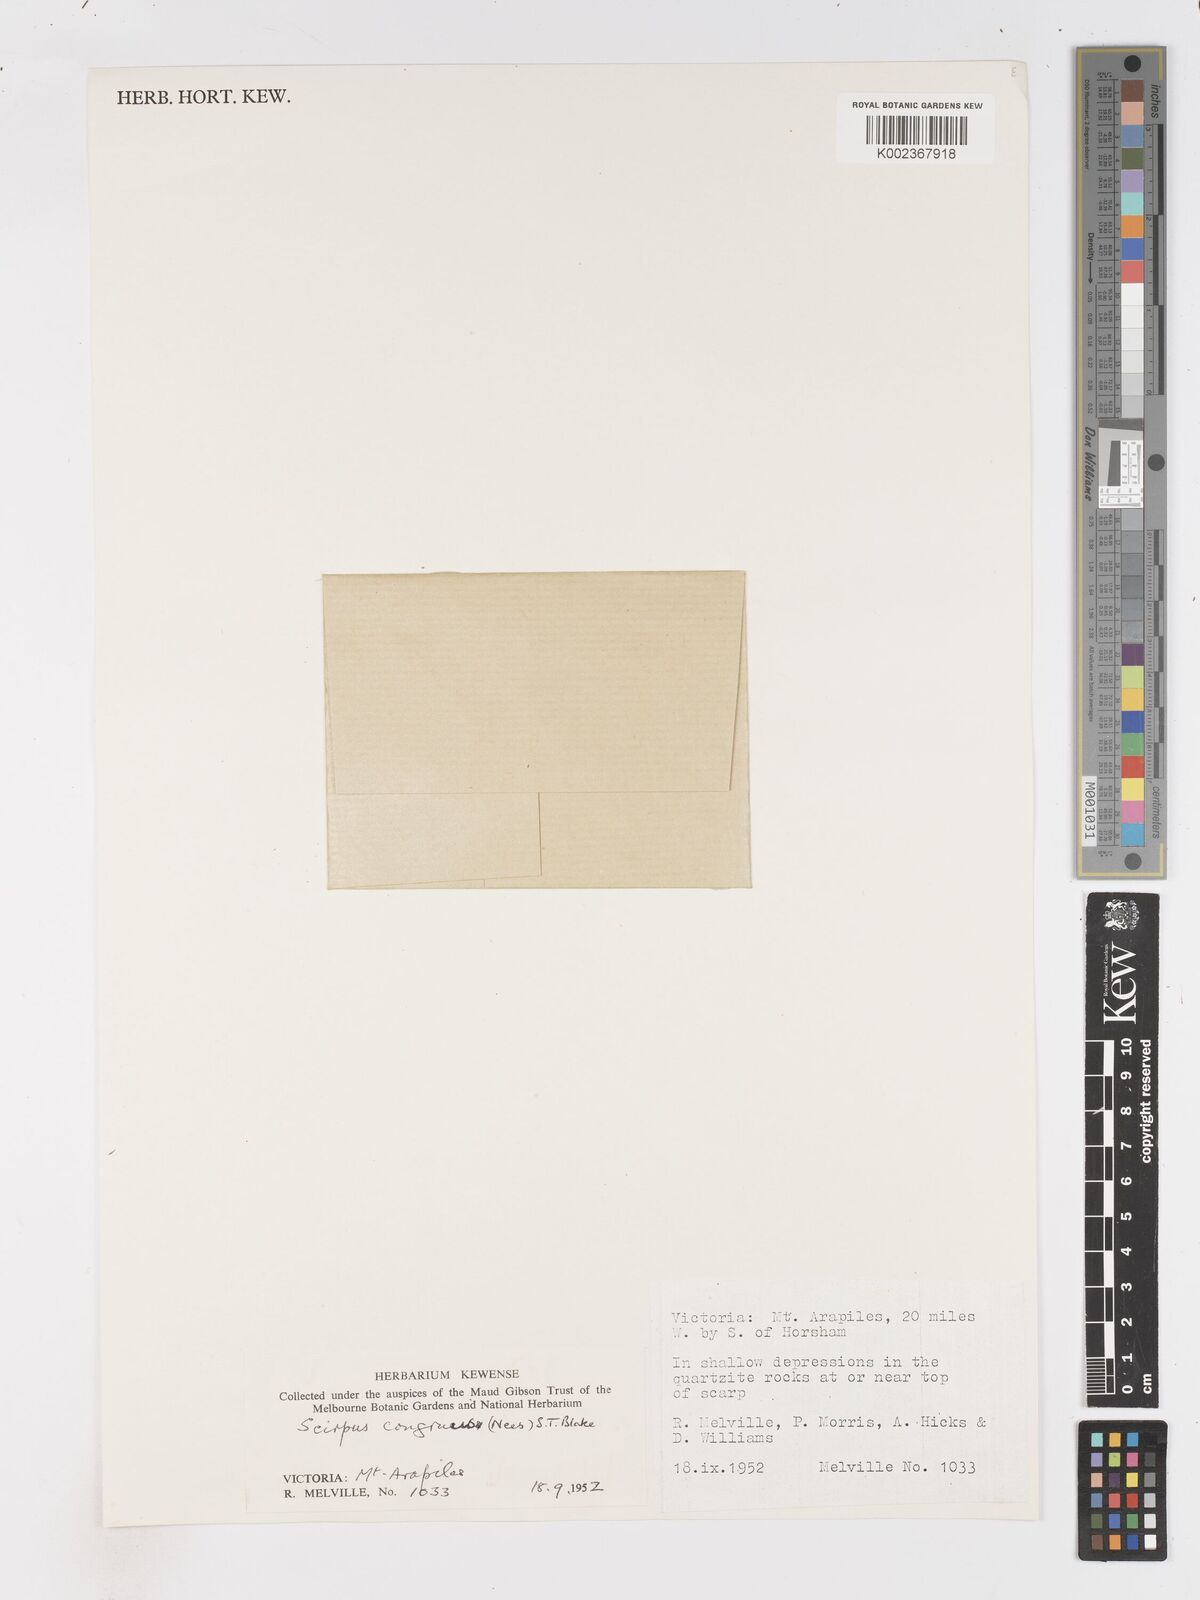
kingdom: Plantae
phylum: Tracheophyta
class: Liliopsida
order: Poales
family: Cyperaceae
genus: Isolepis
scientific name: Isolepis congrua
